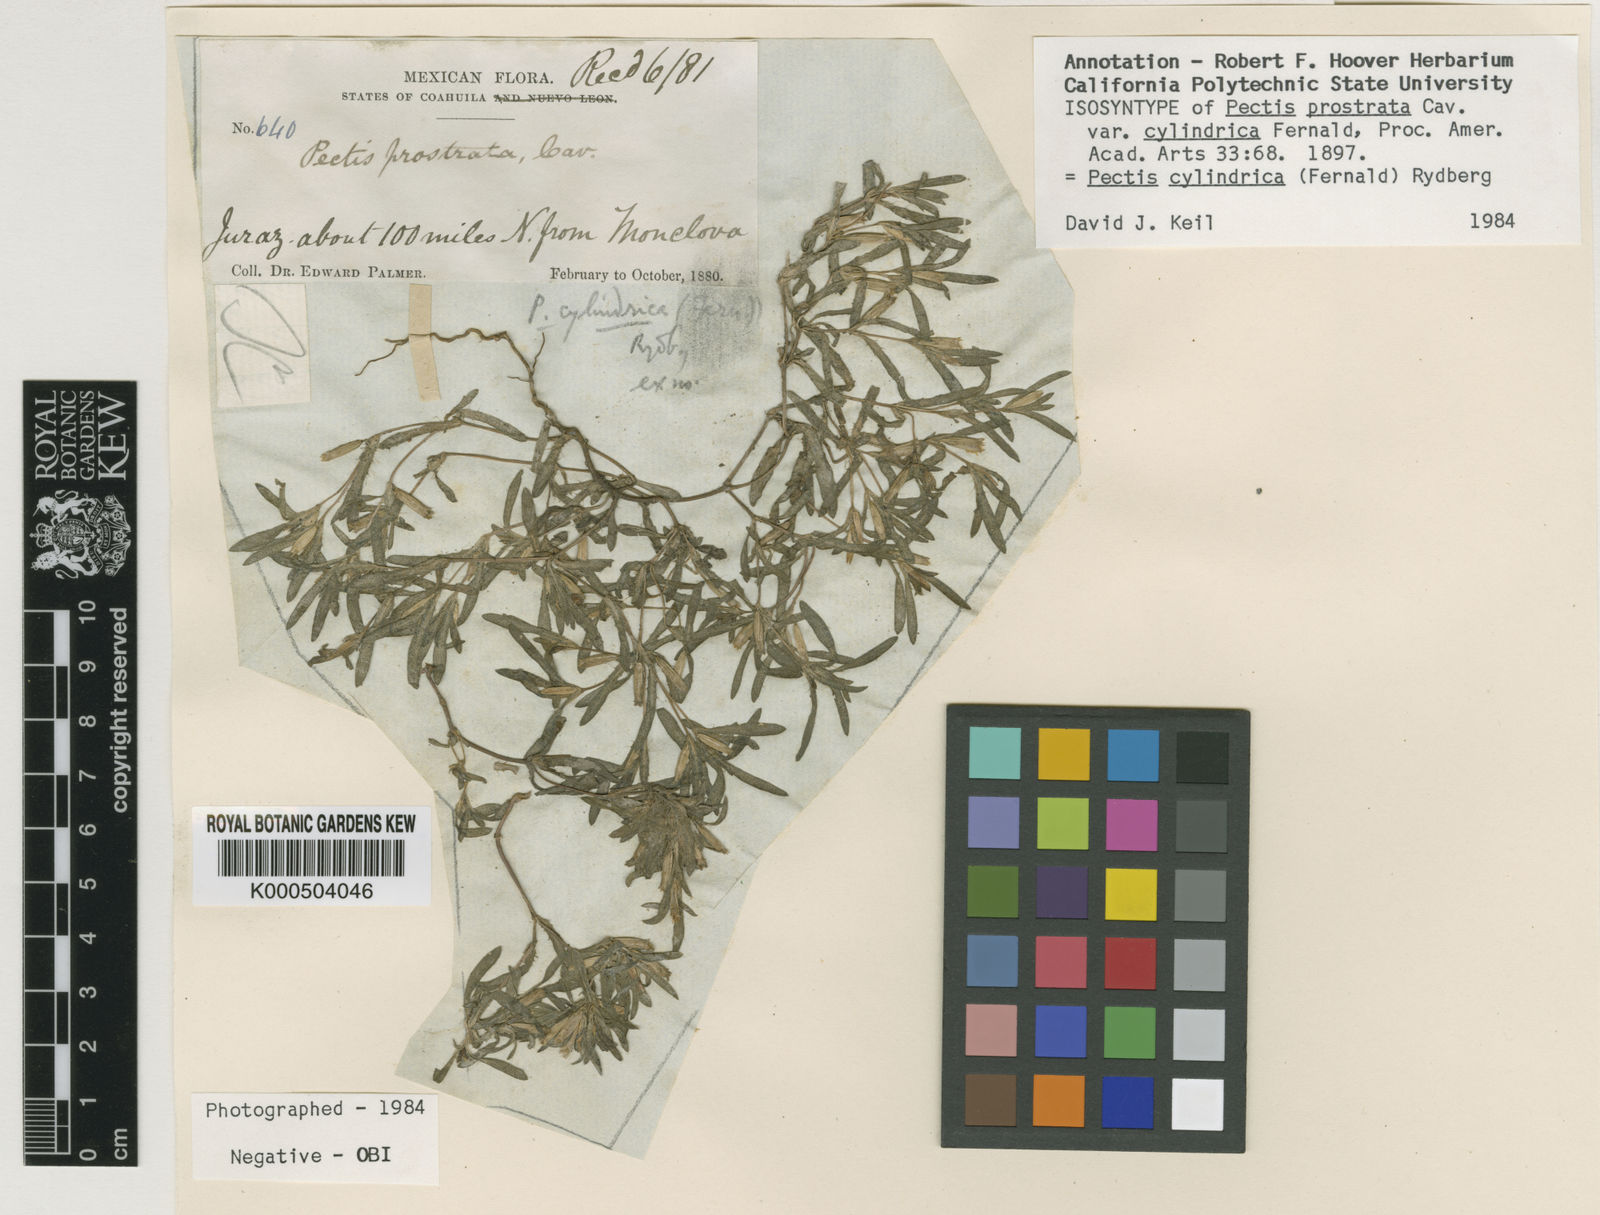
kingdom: Plantae
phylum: Tracheophyta
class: Magnoliopsida
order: Asterales
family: Asteraceae
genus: Pectis
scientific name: Pectis cylindrica
